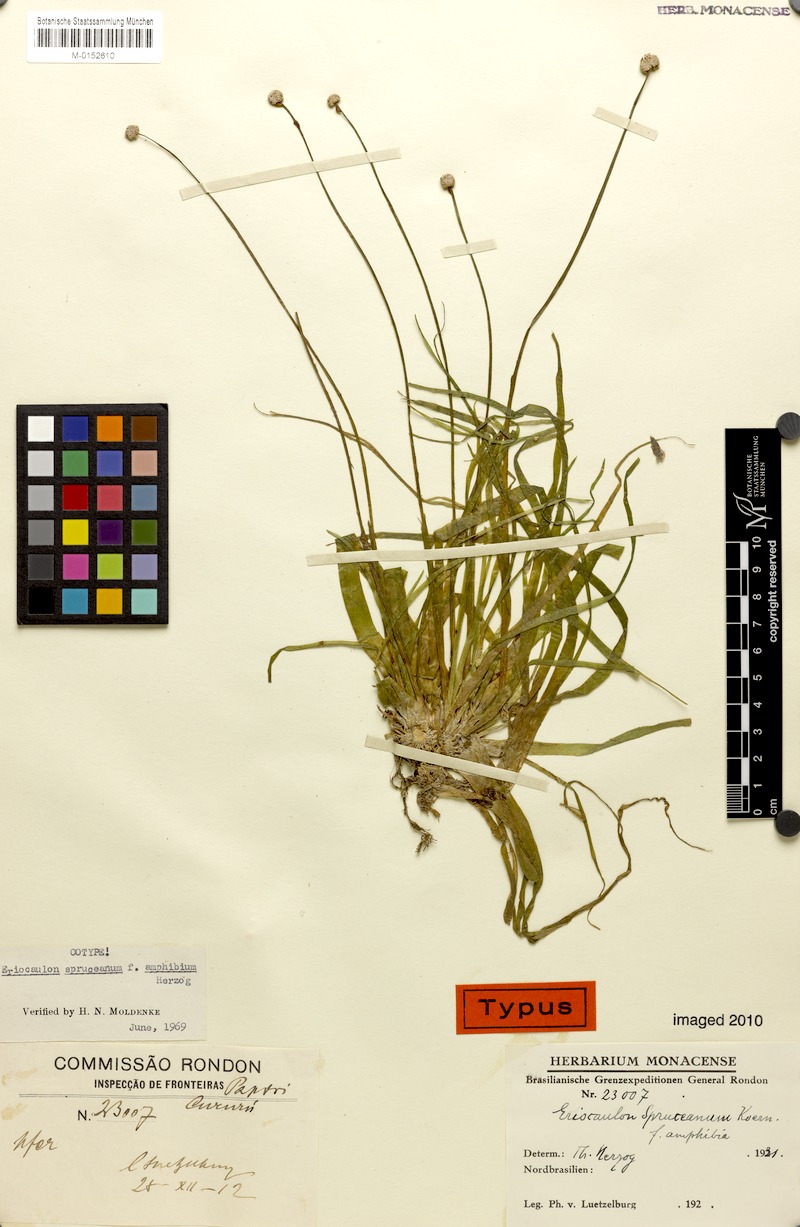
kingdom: Plantae
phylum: Tracheophyta
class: Liliopsida
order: Poales
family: Eriocaulaceae
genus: Eriocaulon
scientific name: Eriocaulon spruceanum
